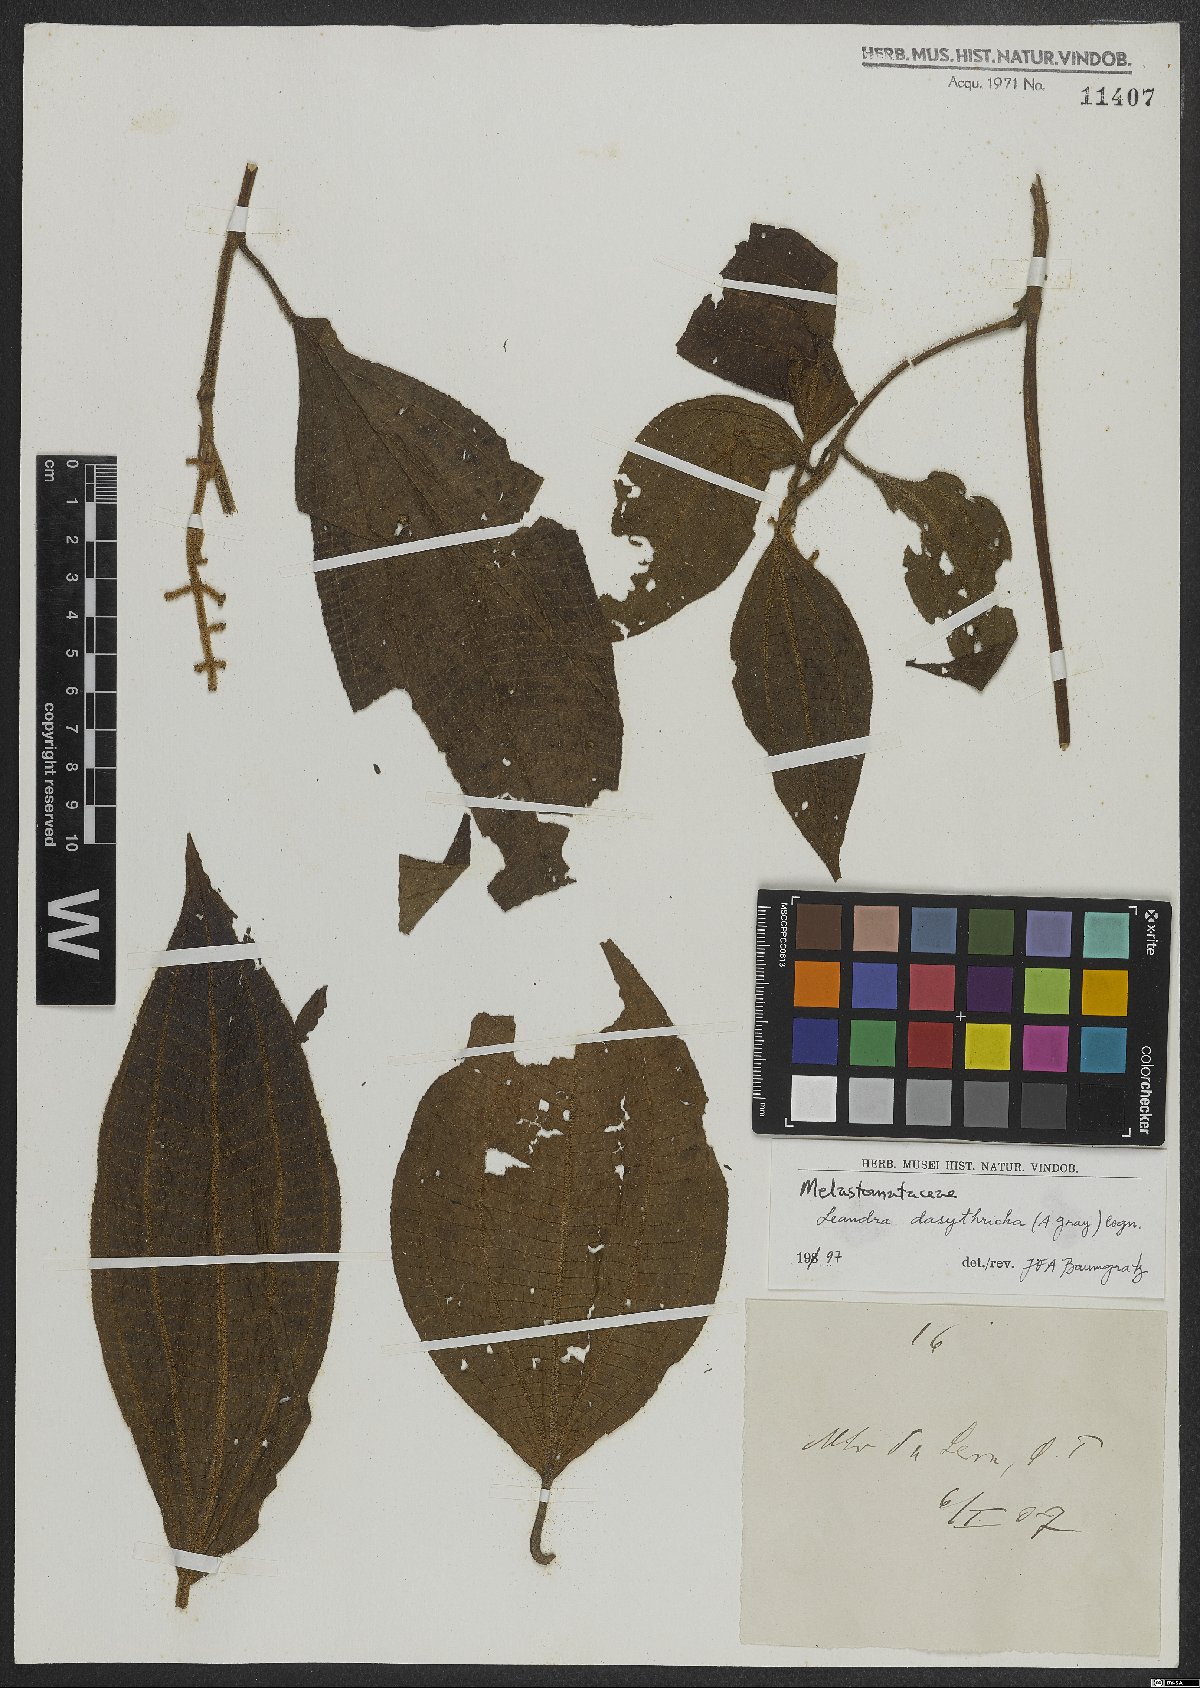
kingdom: Plantae
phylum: Tracheophyta
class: Magnoliopsida
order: Myrtales
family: Melastomataceae
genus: Miconia
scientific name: Miconia dasytricha
